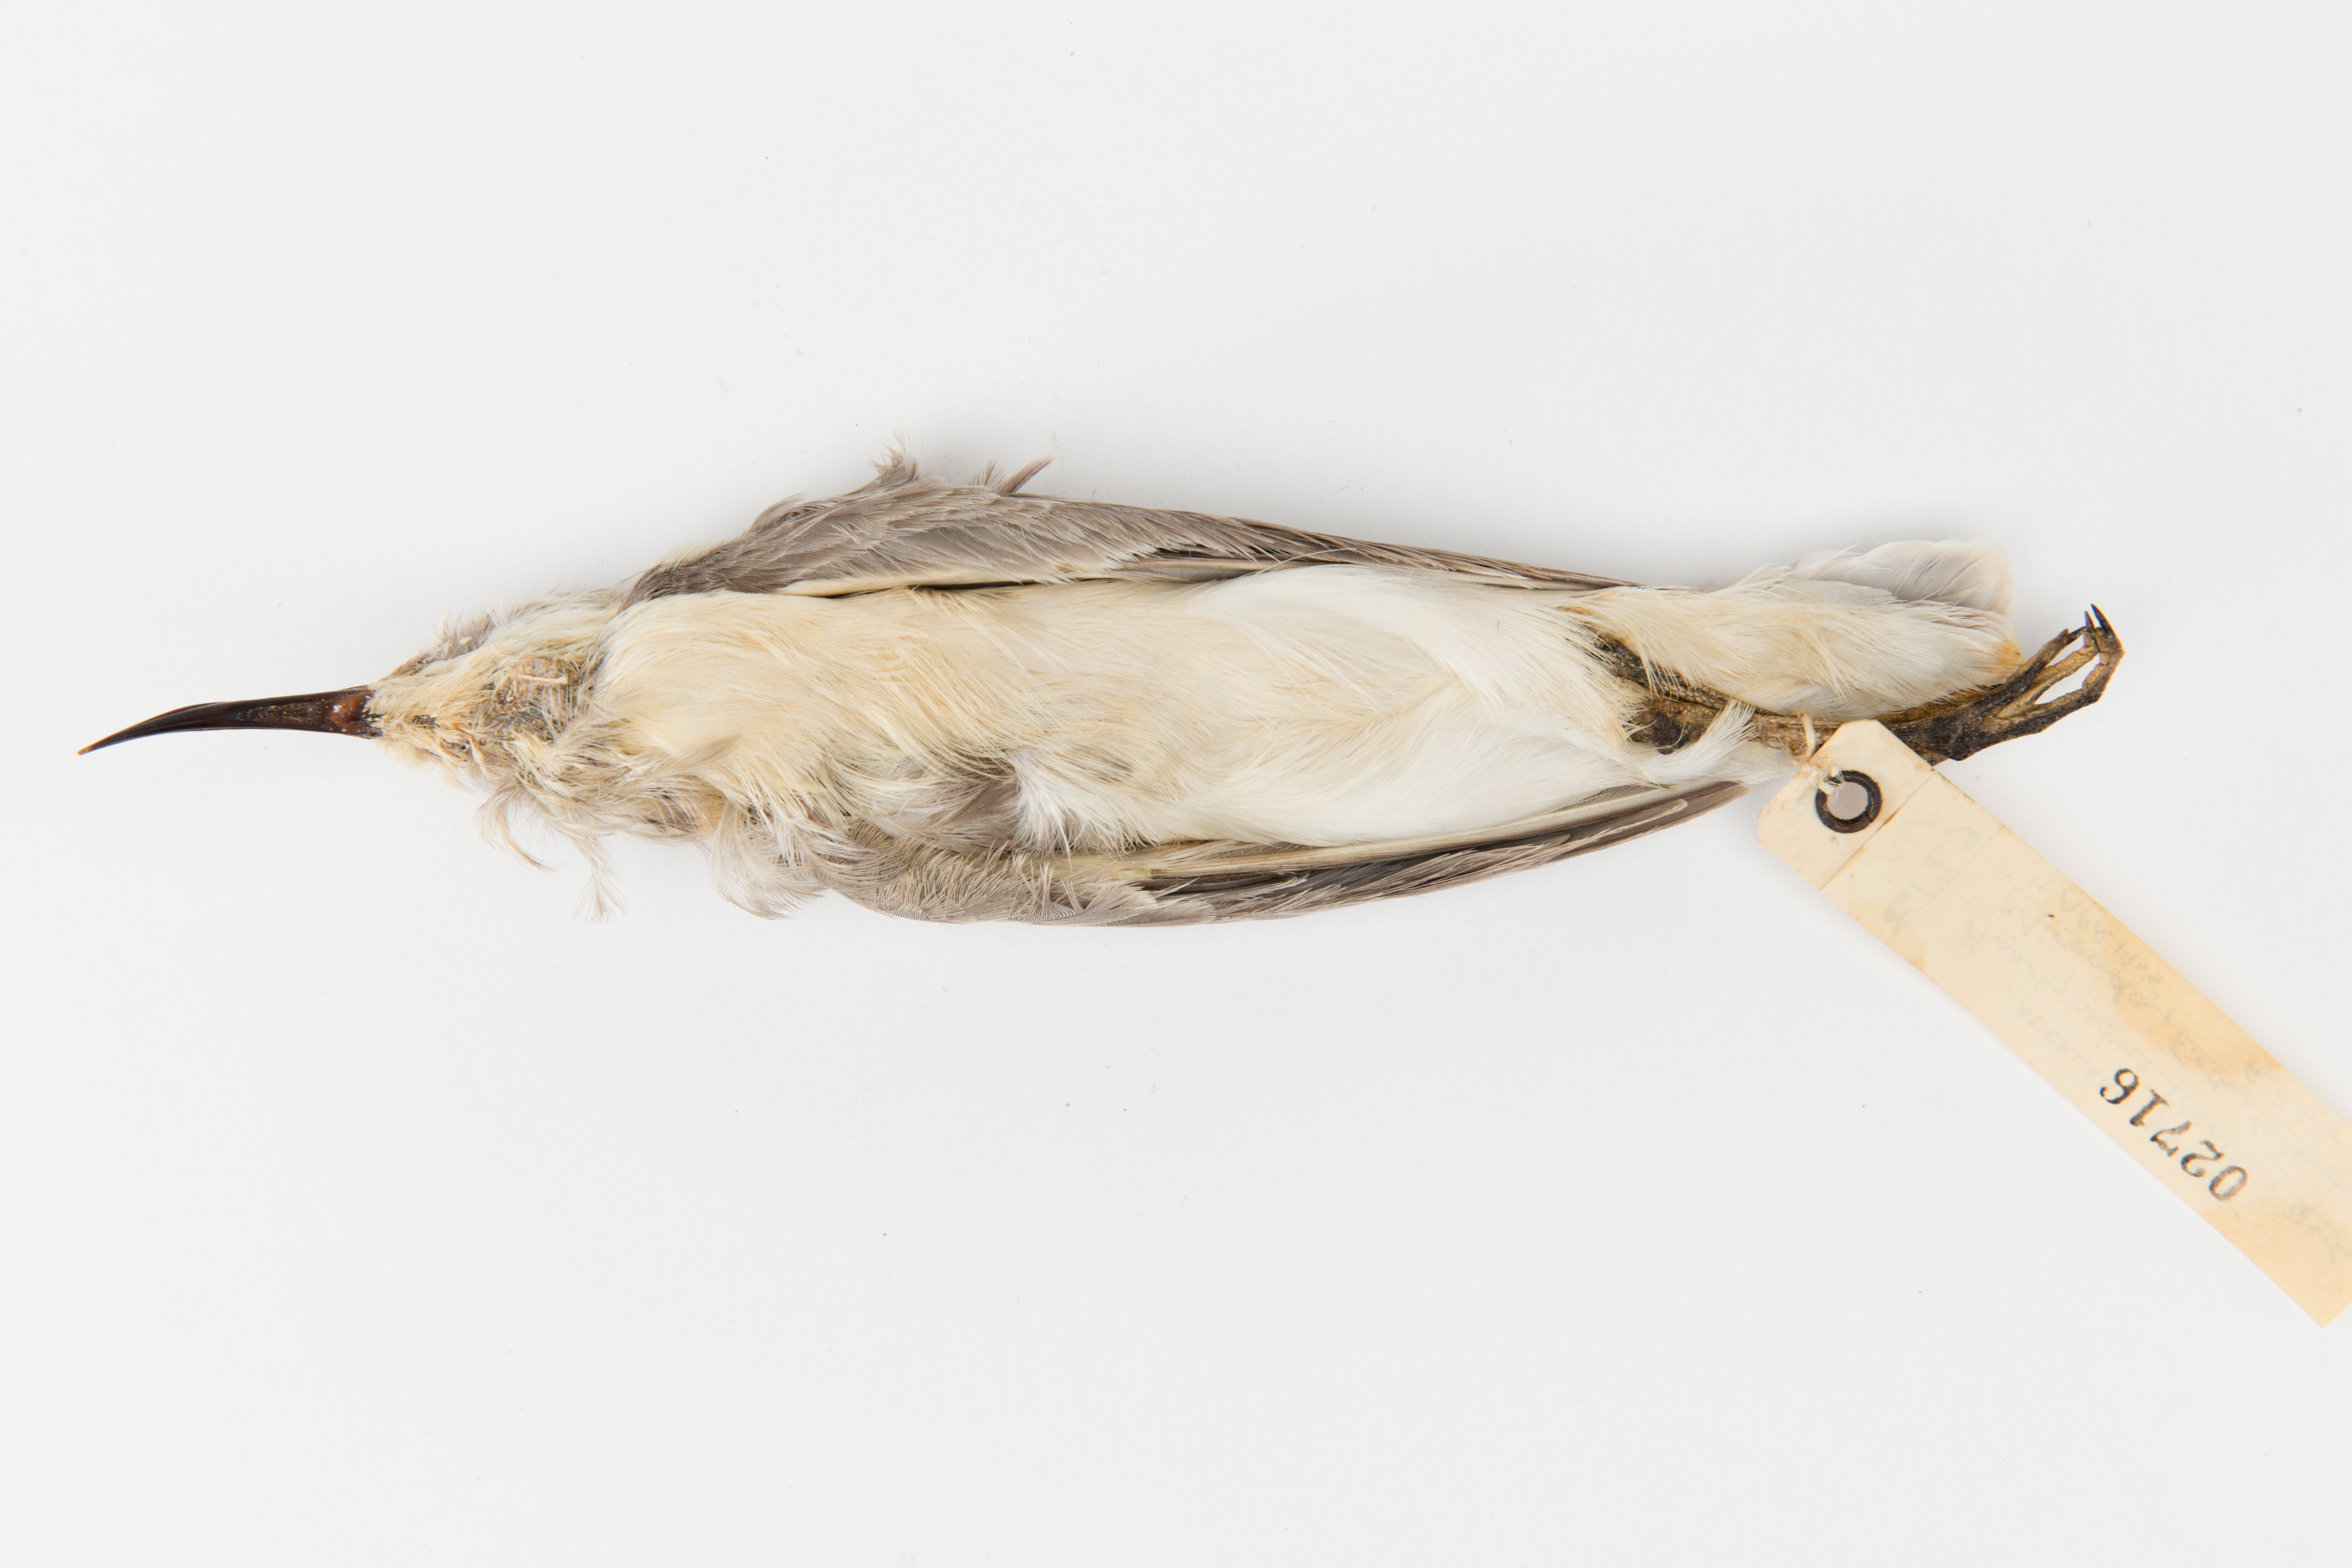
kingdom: Animalia
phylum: Chordata
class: Aves
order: Charadriiformes
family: Charadriidae
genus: Charadrius
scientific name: Charadrius frontalis
